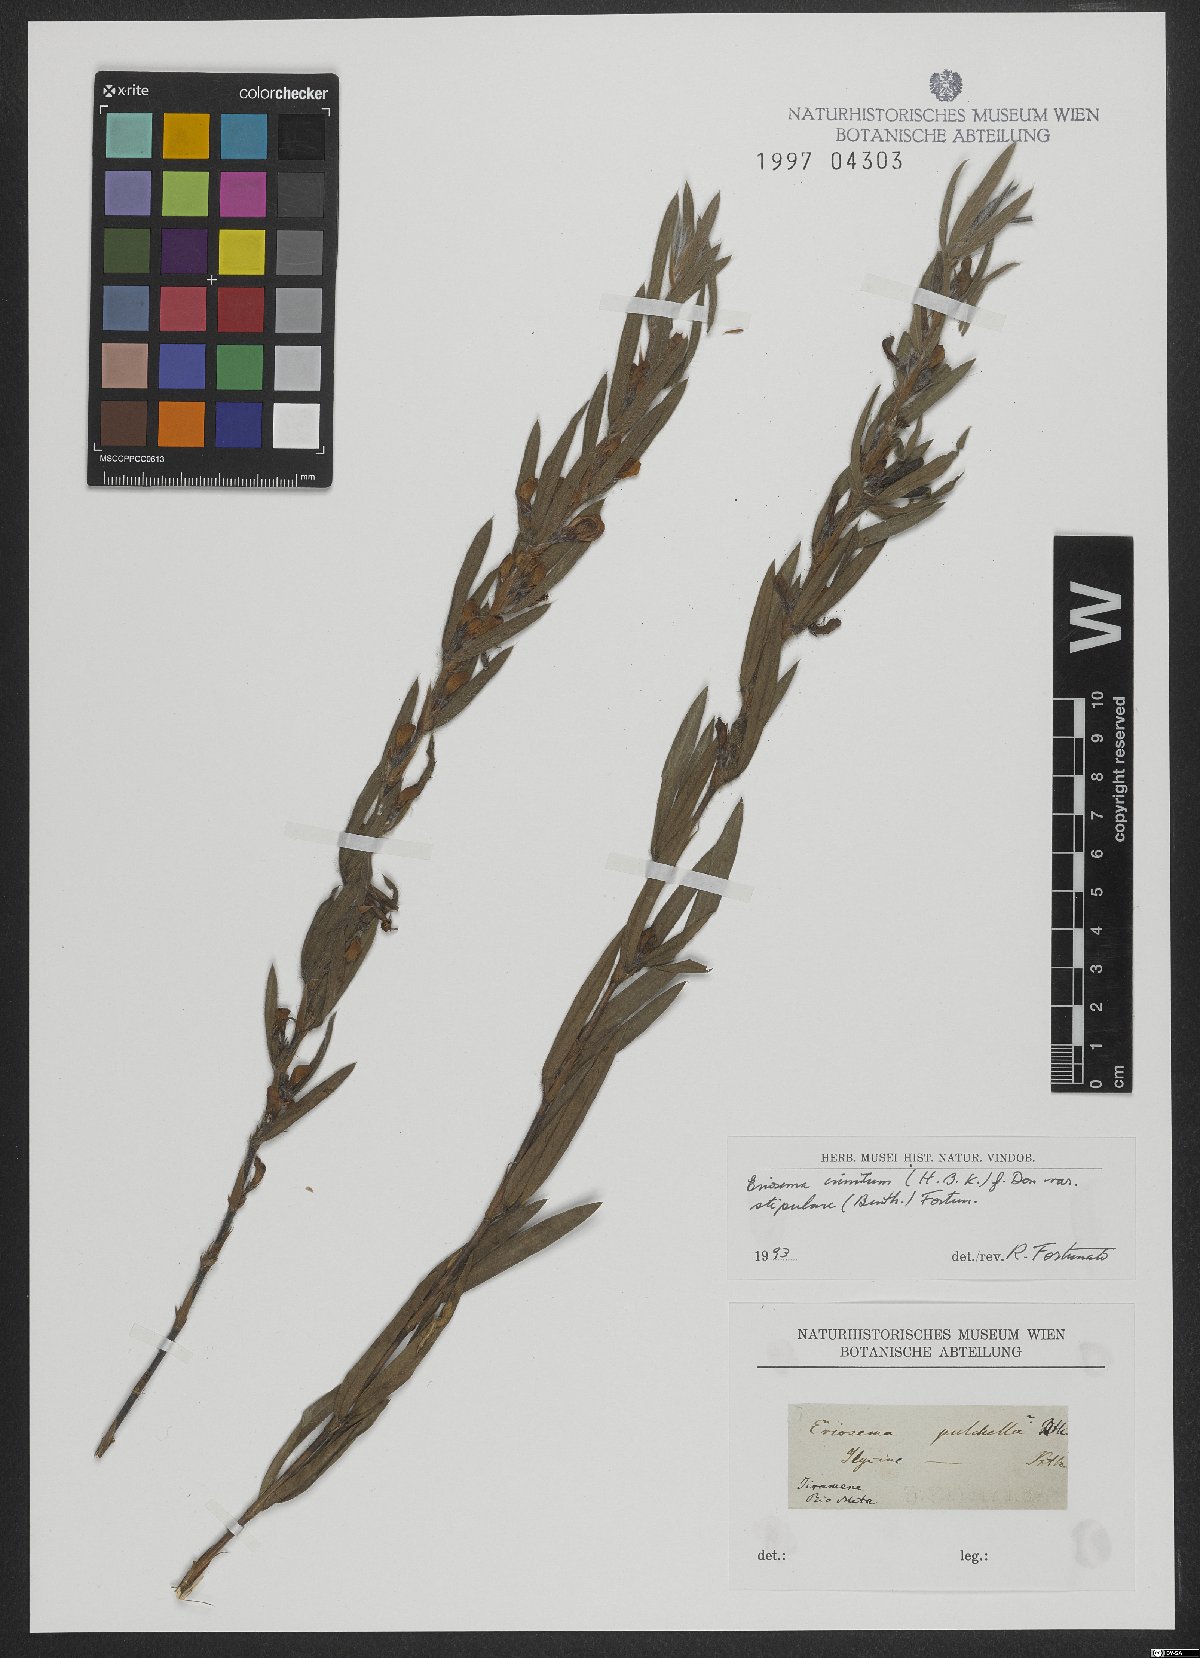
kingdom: Plantae
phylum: Tracheophyta
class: Magnoliopsida
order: Fabales
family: Fabaceae
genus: Eriosema
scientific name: Eriosema crinitum
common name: Sand pea
